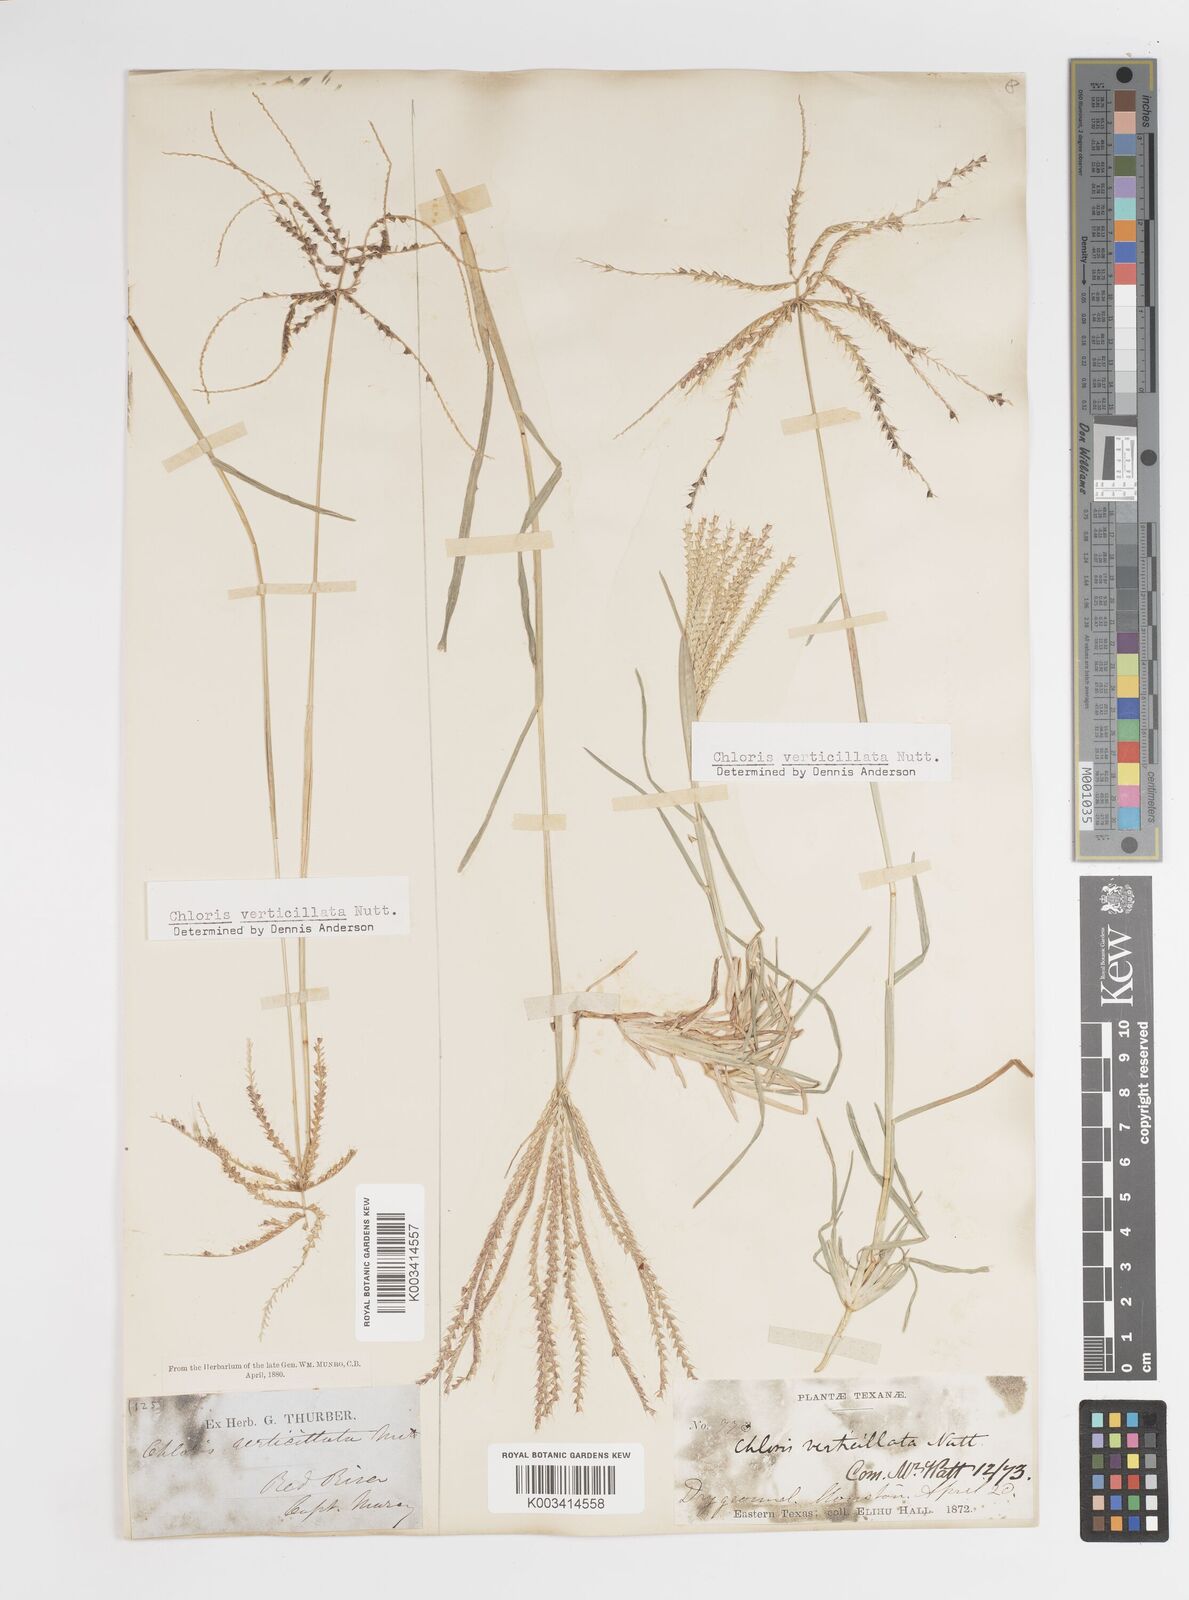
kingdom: Plantae
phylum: Tracheophyta
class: Liliopsida
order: Poales
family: Poaceae
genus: Chloris
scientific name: Chloris verticillata
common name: Tumble windmill grass
